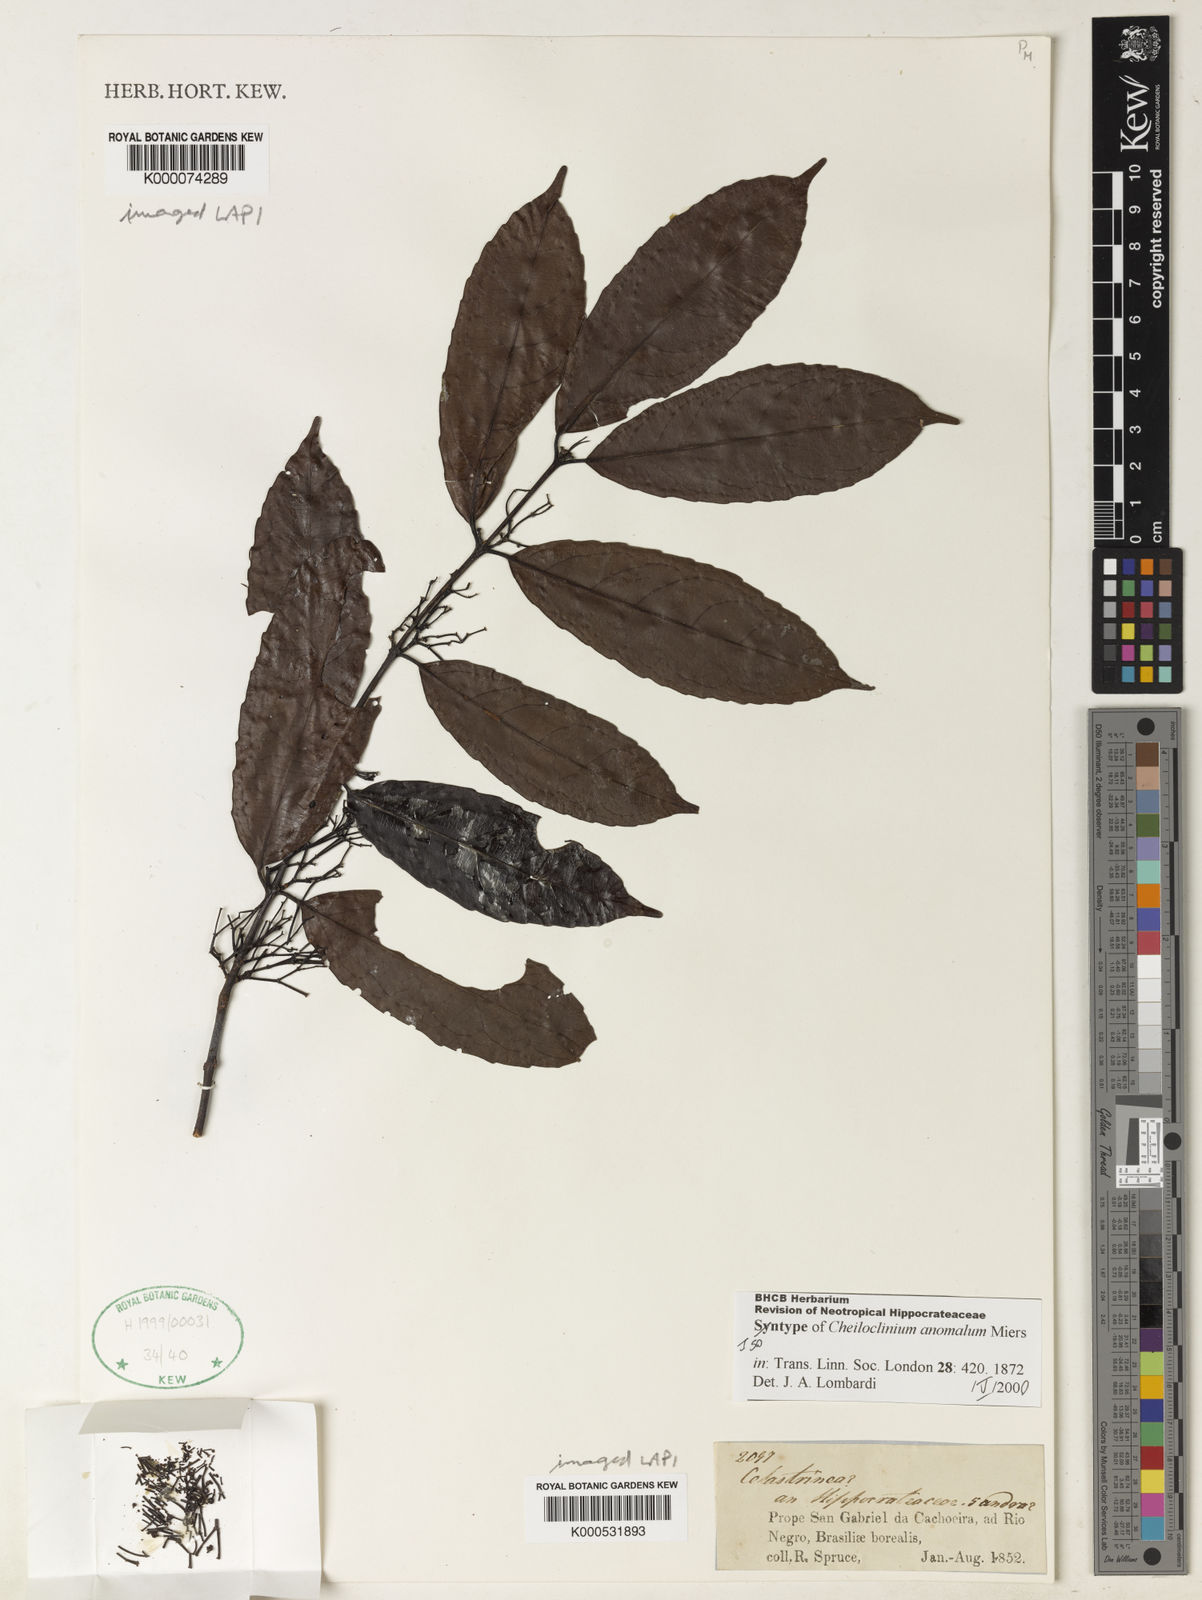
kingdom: Plantae
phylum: Tracheophyta
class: Magnoliopsida
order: Celastrales
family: Celastraceae
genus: Cheiloclinium
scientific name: Cheiloclinium anomalum
